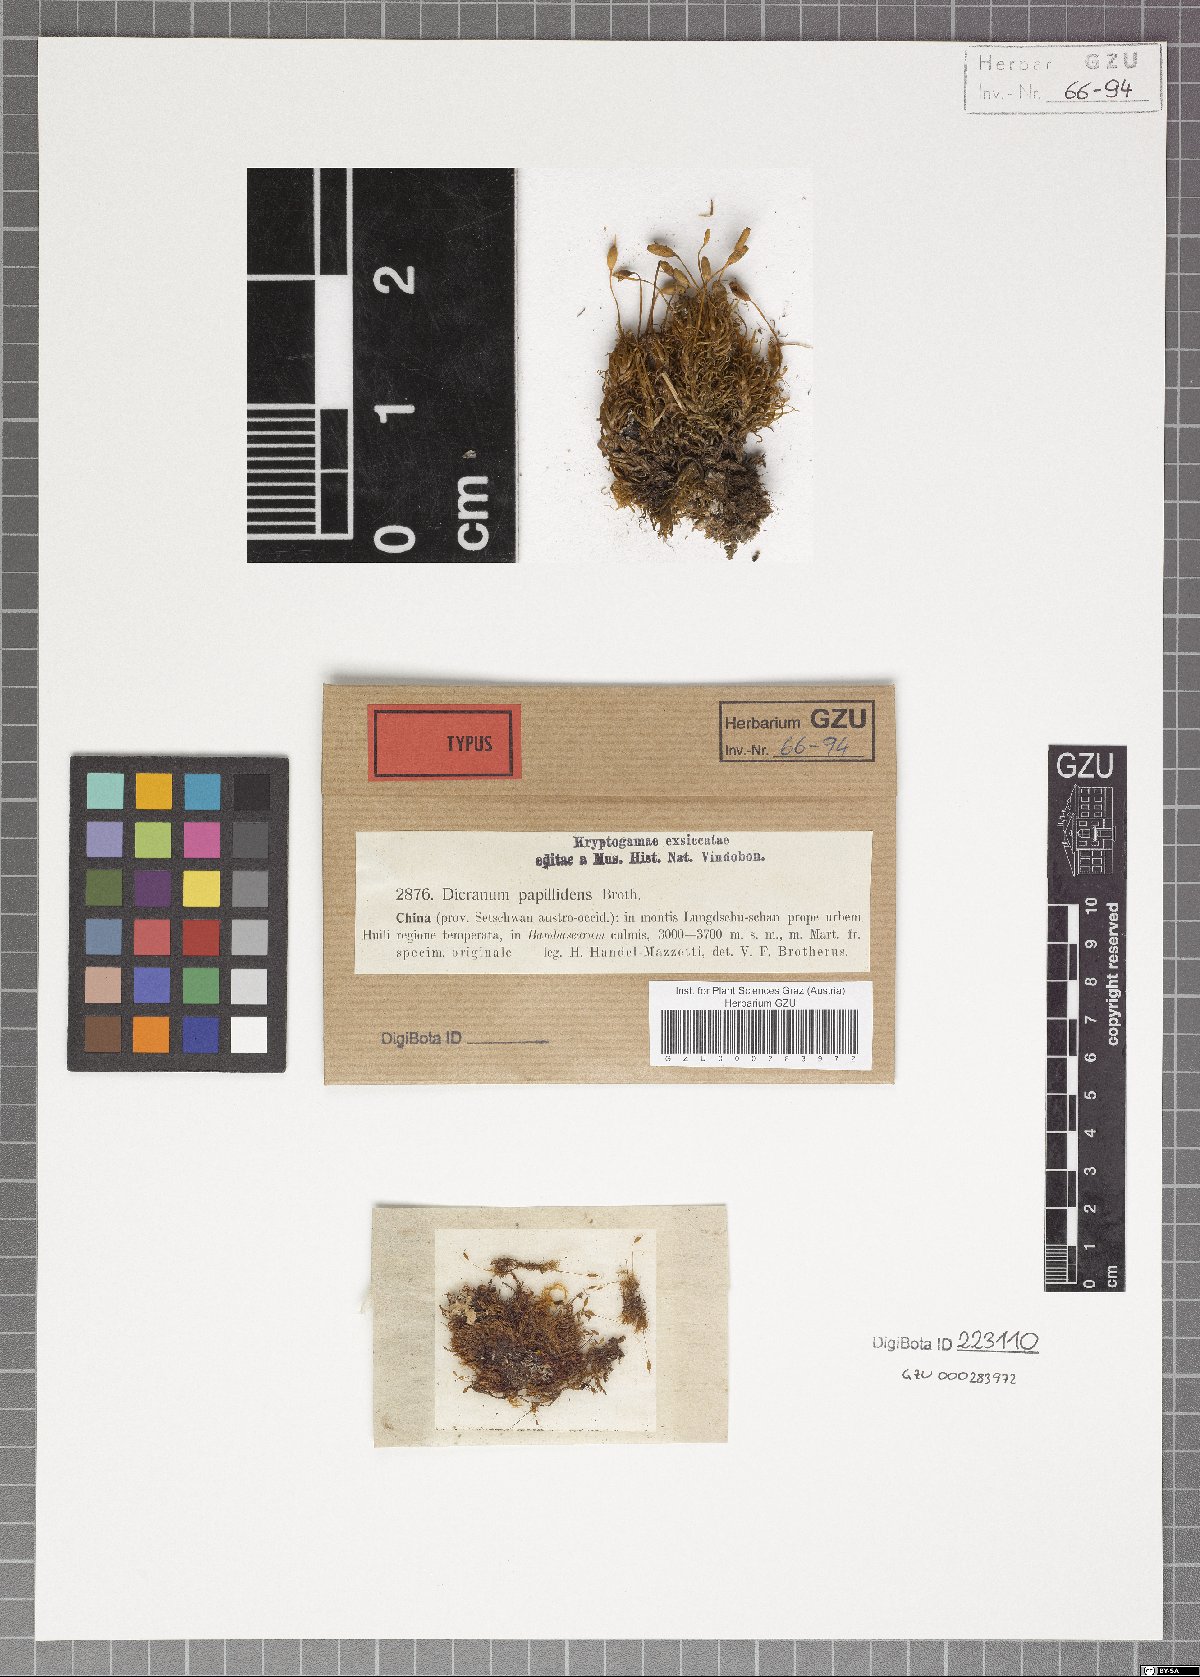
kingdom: Plantae
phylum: Bryophyta
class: Bryopsida
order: Dicranales
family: Dicranaceae
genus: Dicranum
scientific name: Dicranum papillidens
